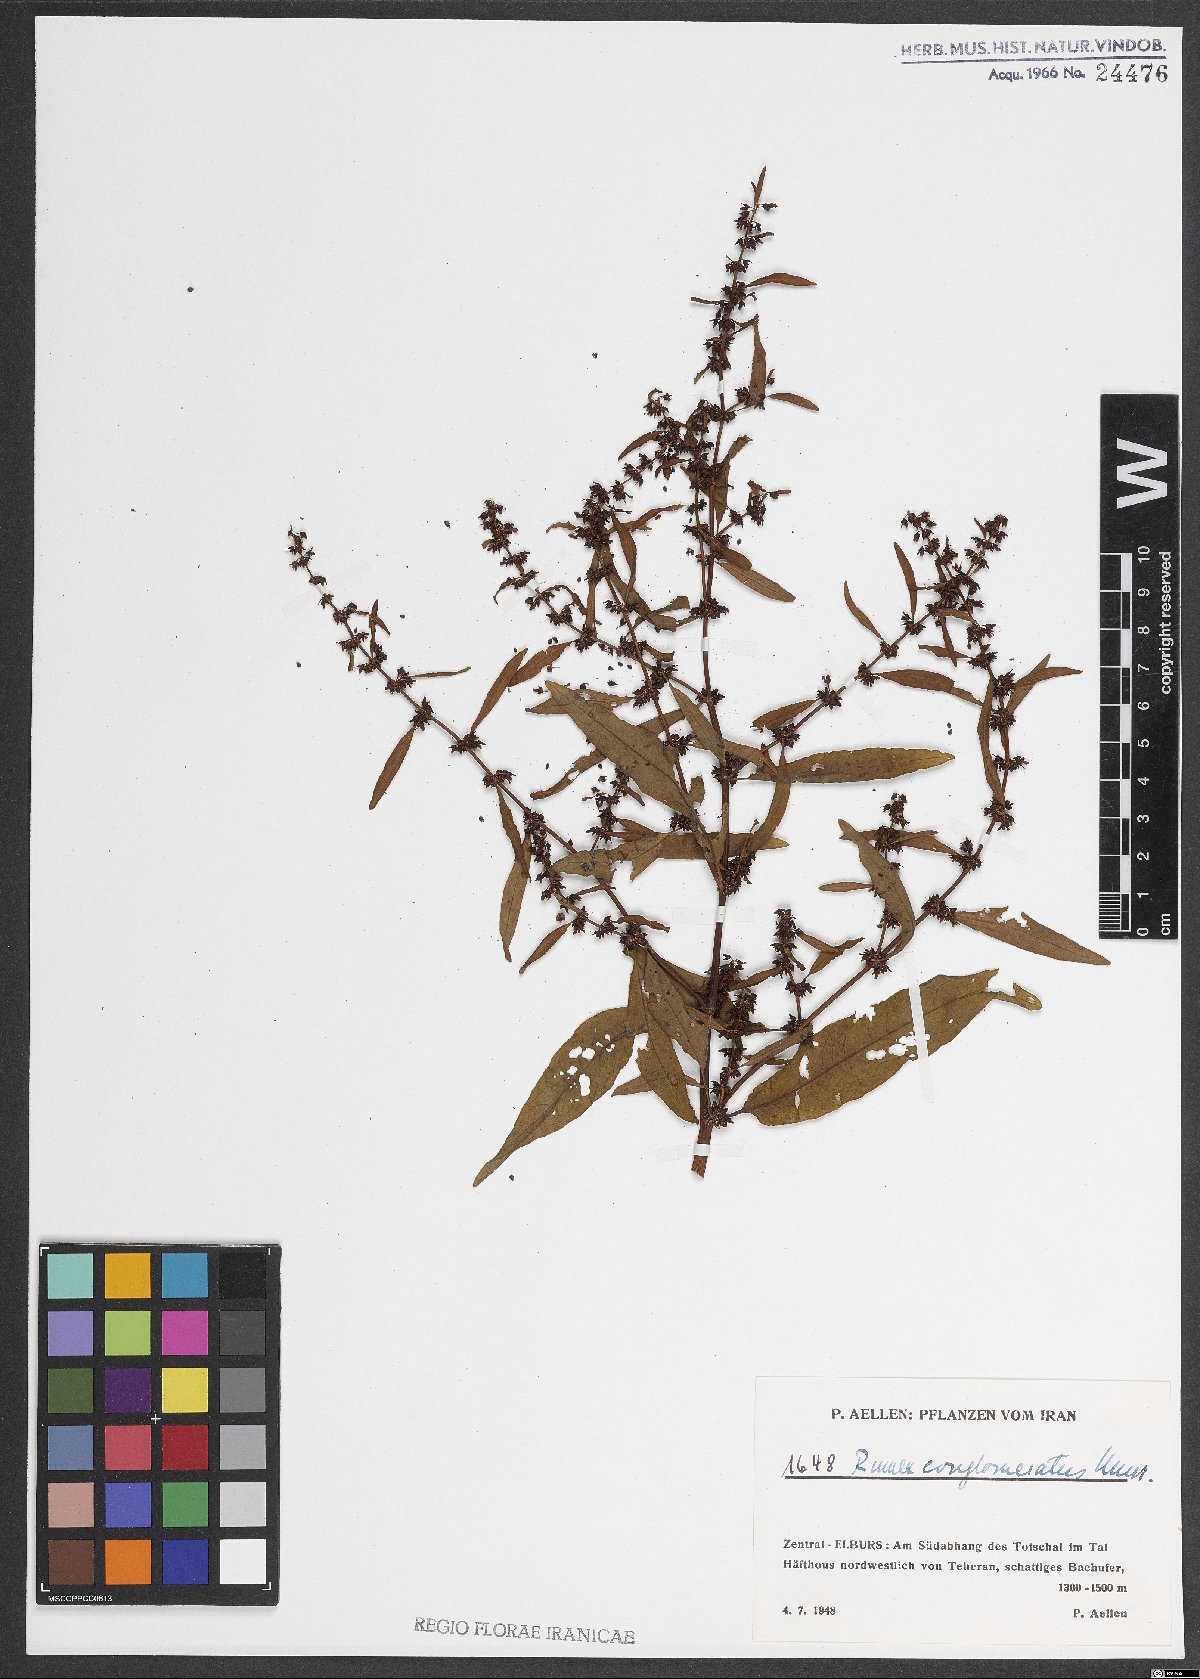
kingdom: Plantae
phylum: Tracheophyta
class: Magnoliopsida
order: Caryophyllales
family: Polygonaceae
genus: Rumex
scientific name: Rumex conglomeratus
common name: Clustered dock
